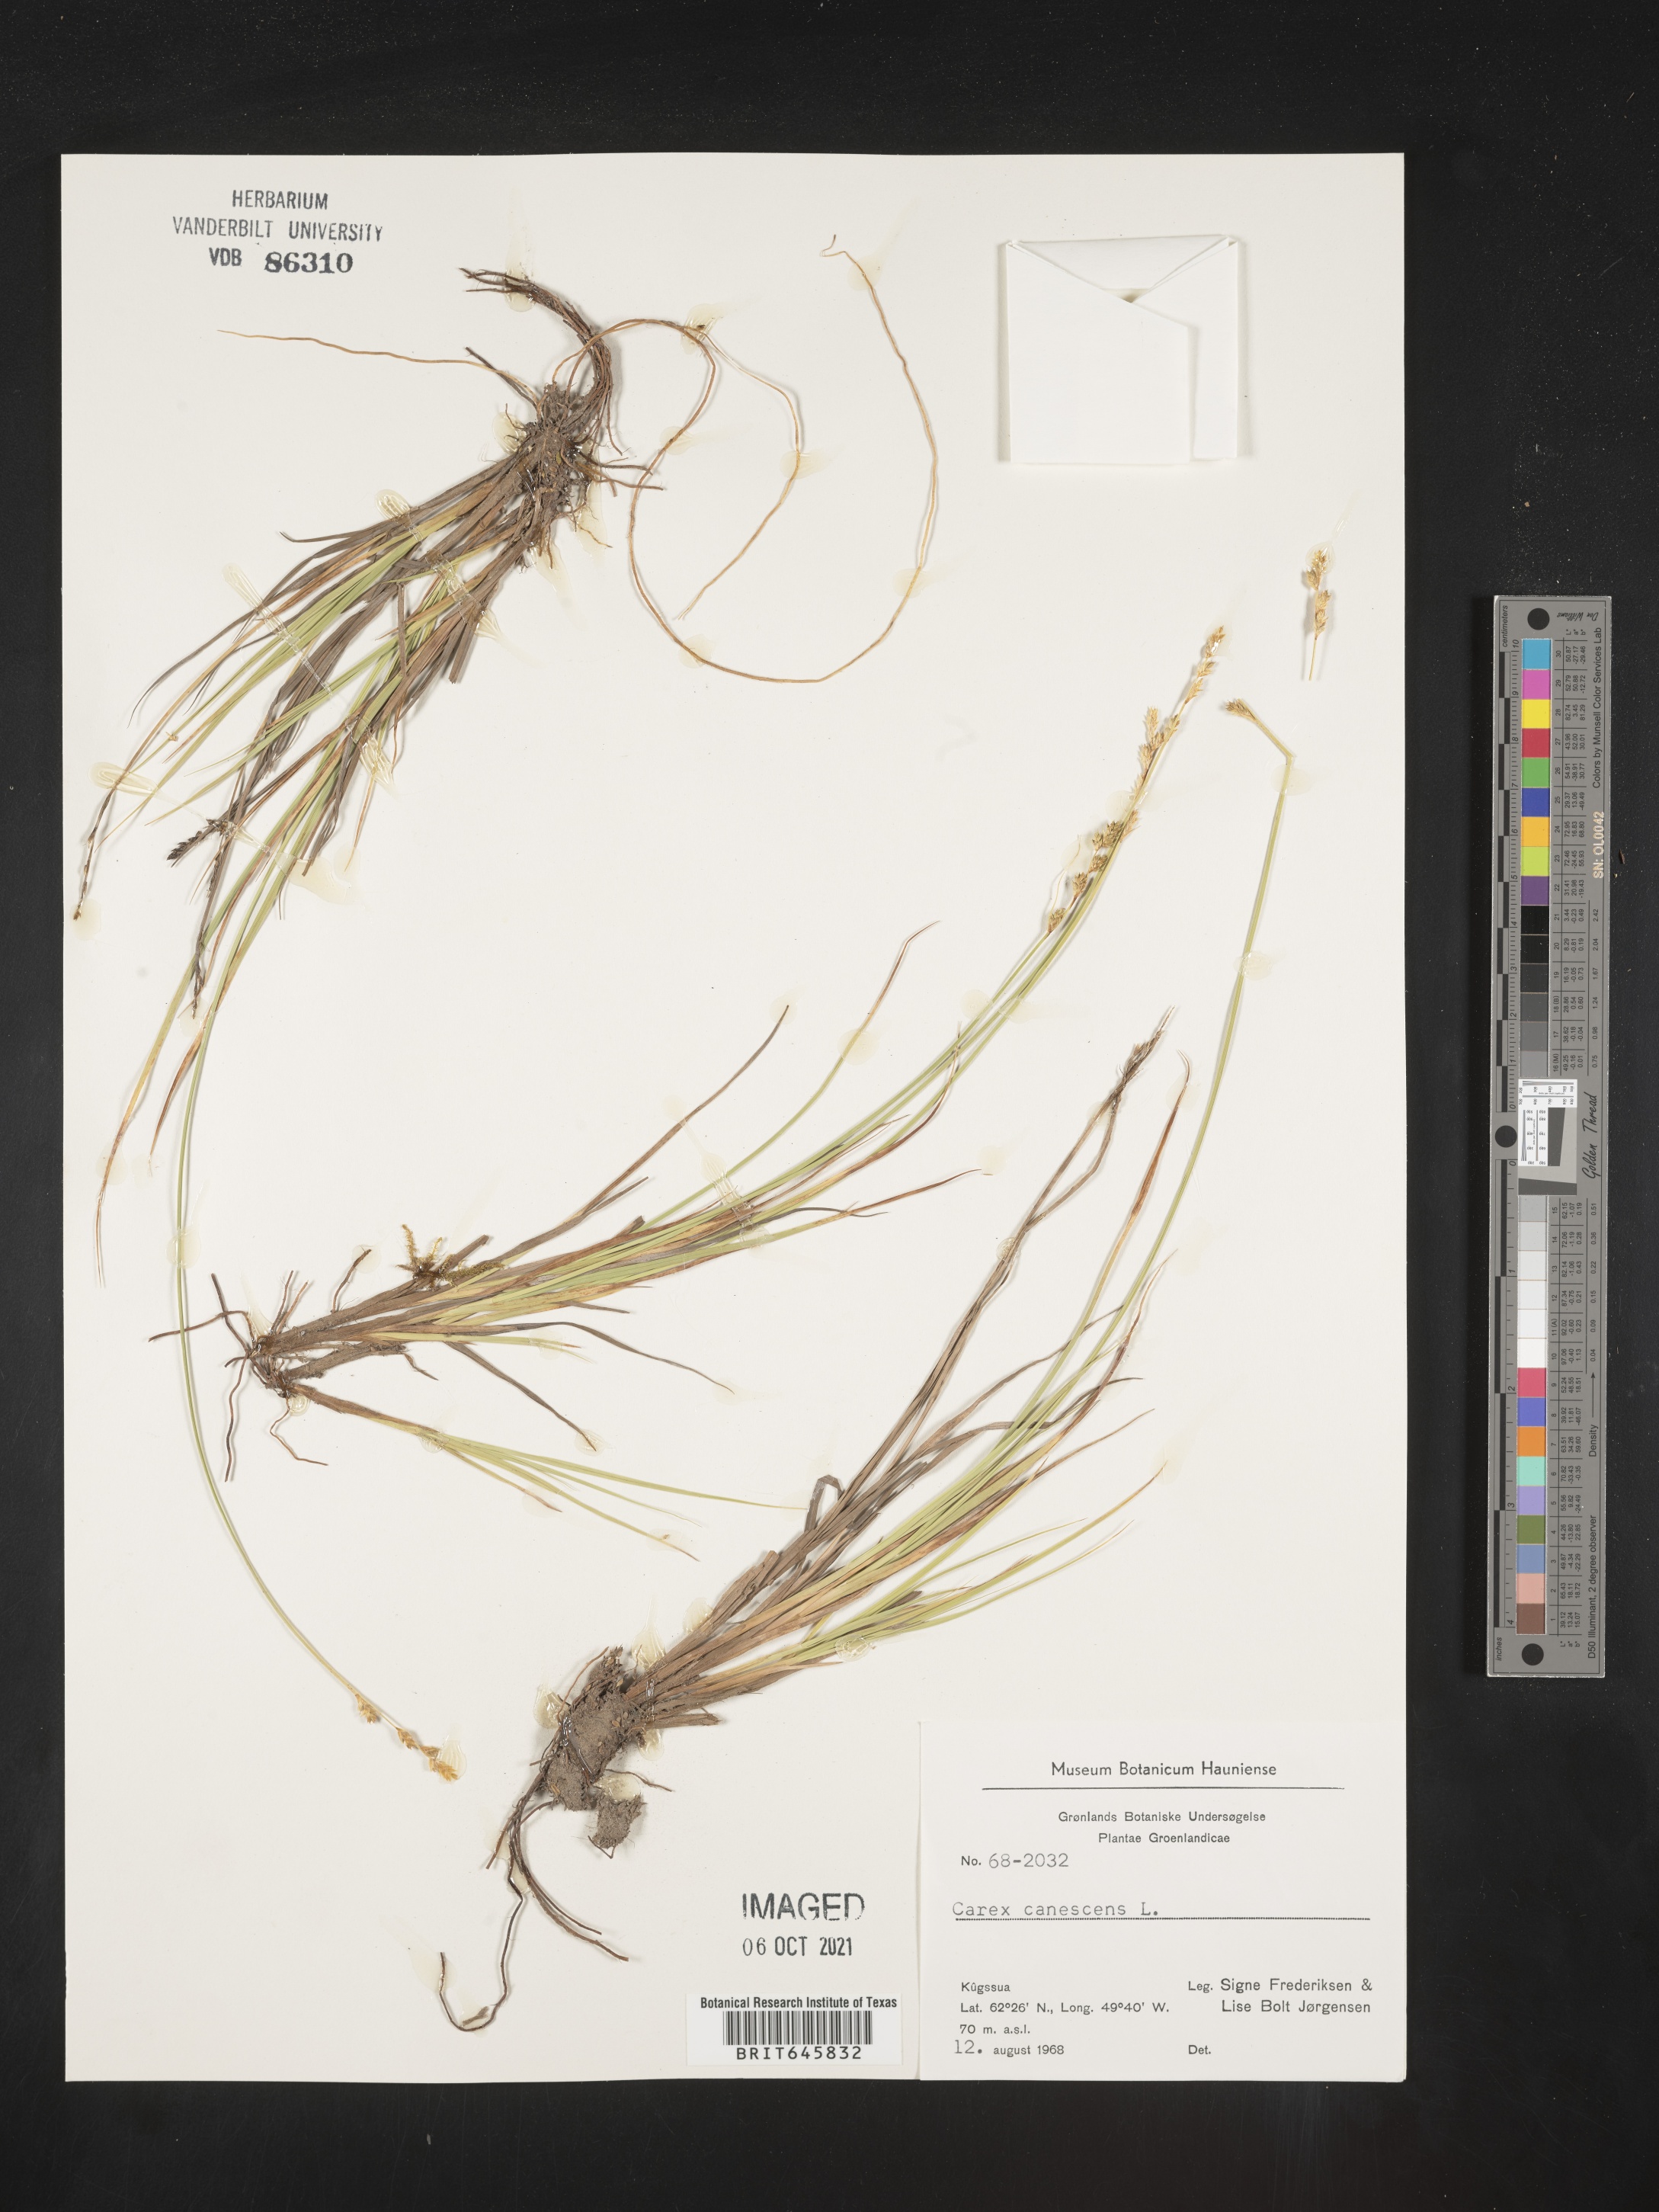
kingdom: Plantae
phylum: Tracheophyta
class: Liliopsida
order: Poales
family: Cyperaceae
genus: Carex
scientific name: Carex canescens
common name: White sedge
